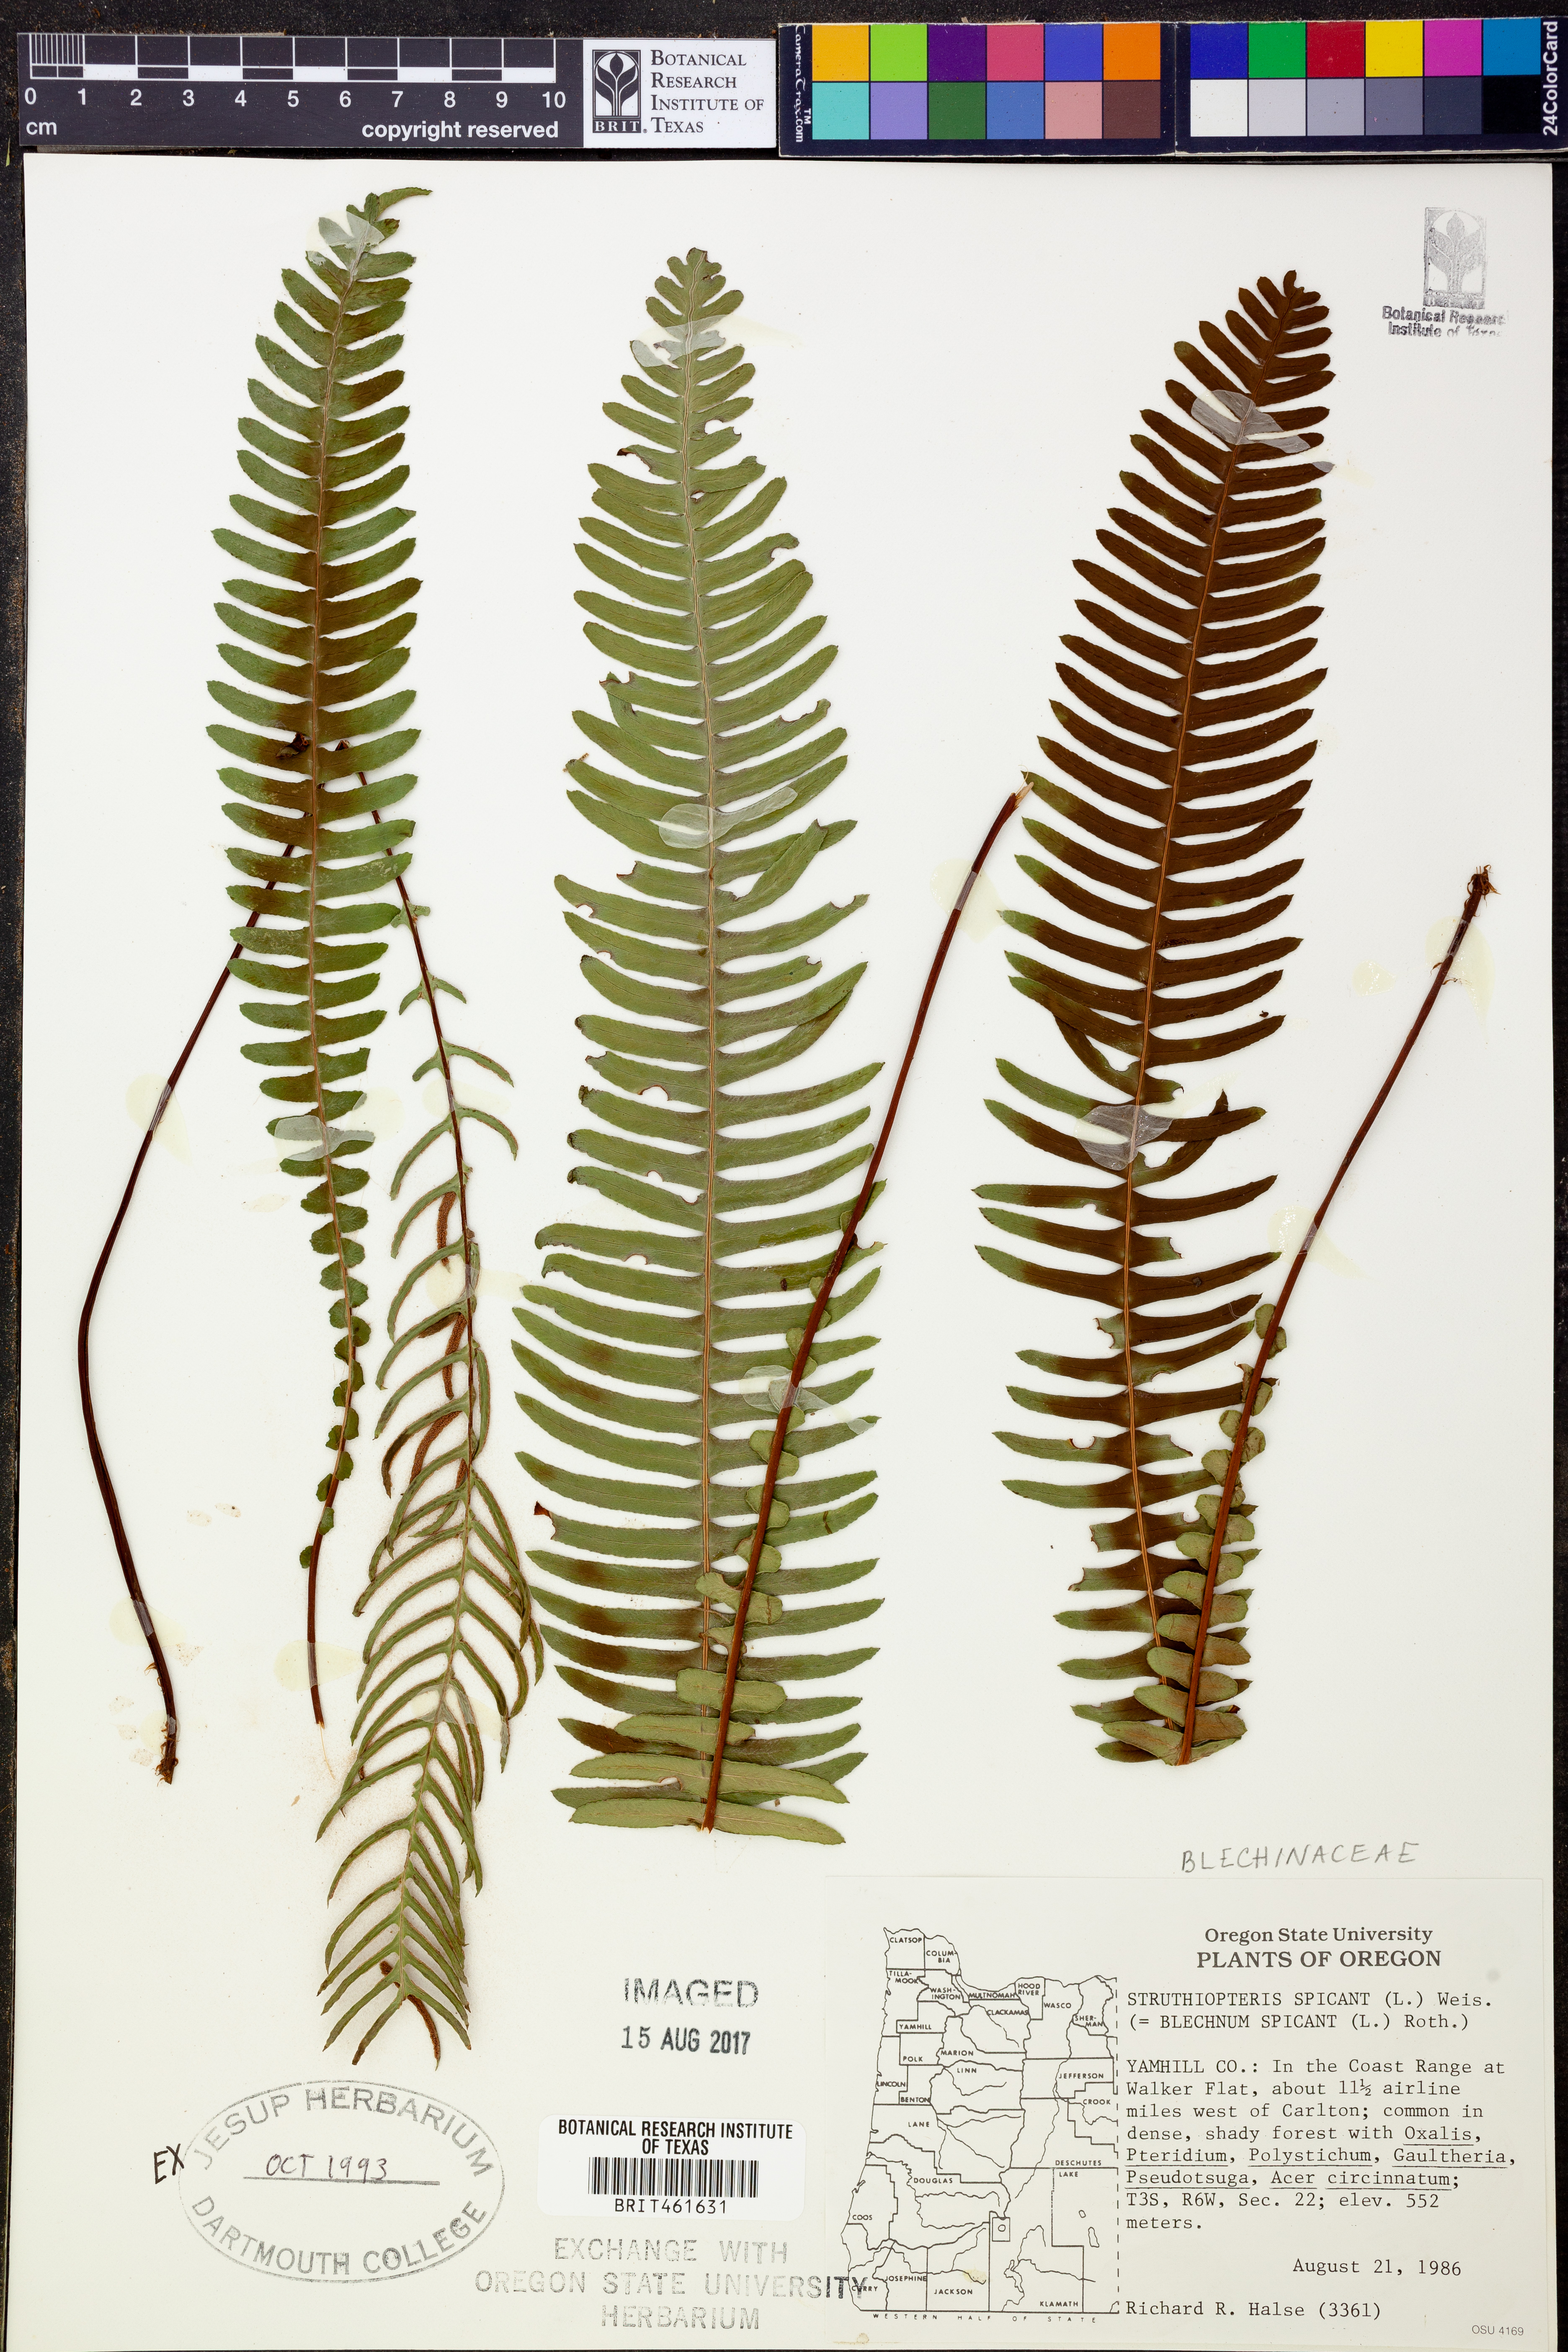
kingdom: Plantae
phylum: Tracheophyta
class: Polypodiopsida
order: Polypodiales
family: Blechnaceae
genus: Struthiopteris
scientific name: Struthiopteris spicant
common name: Deer fern
